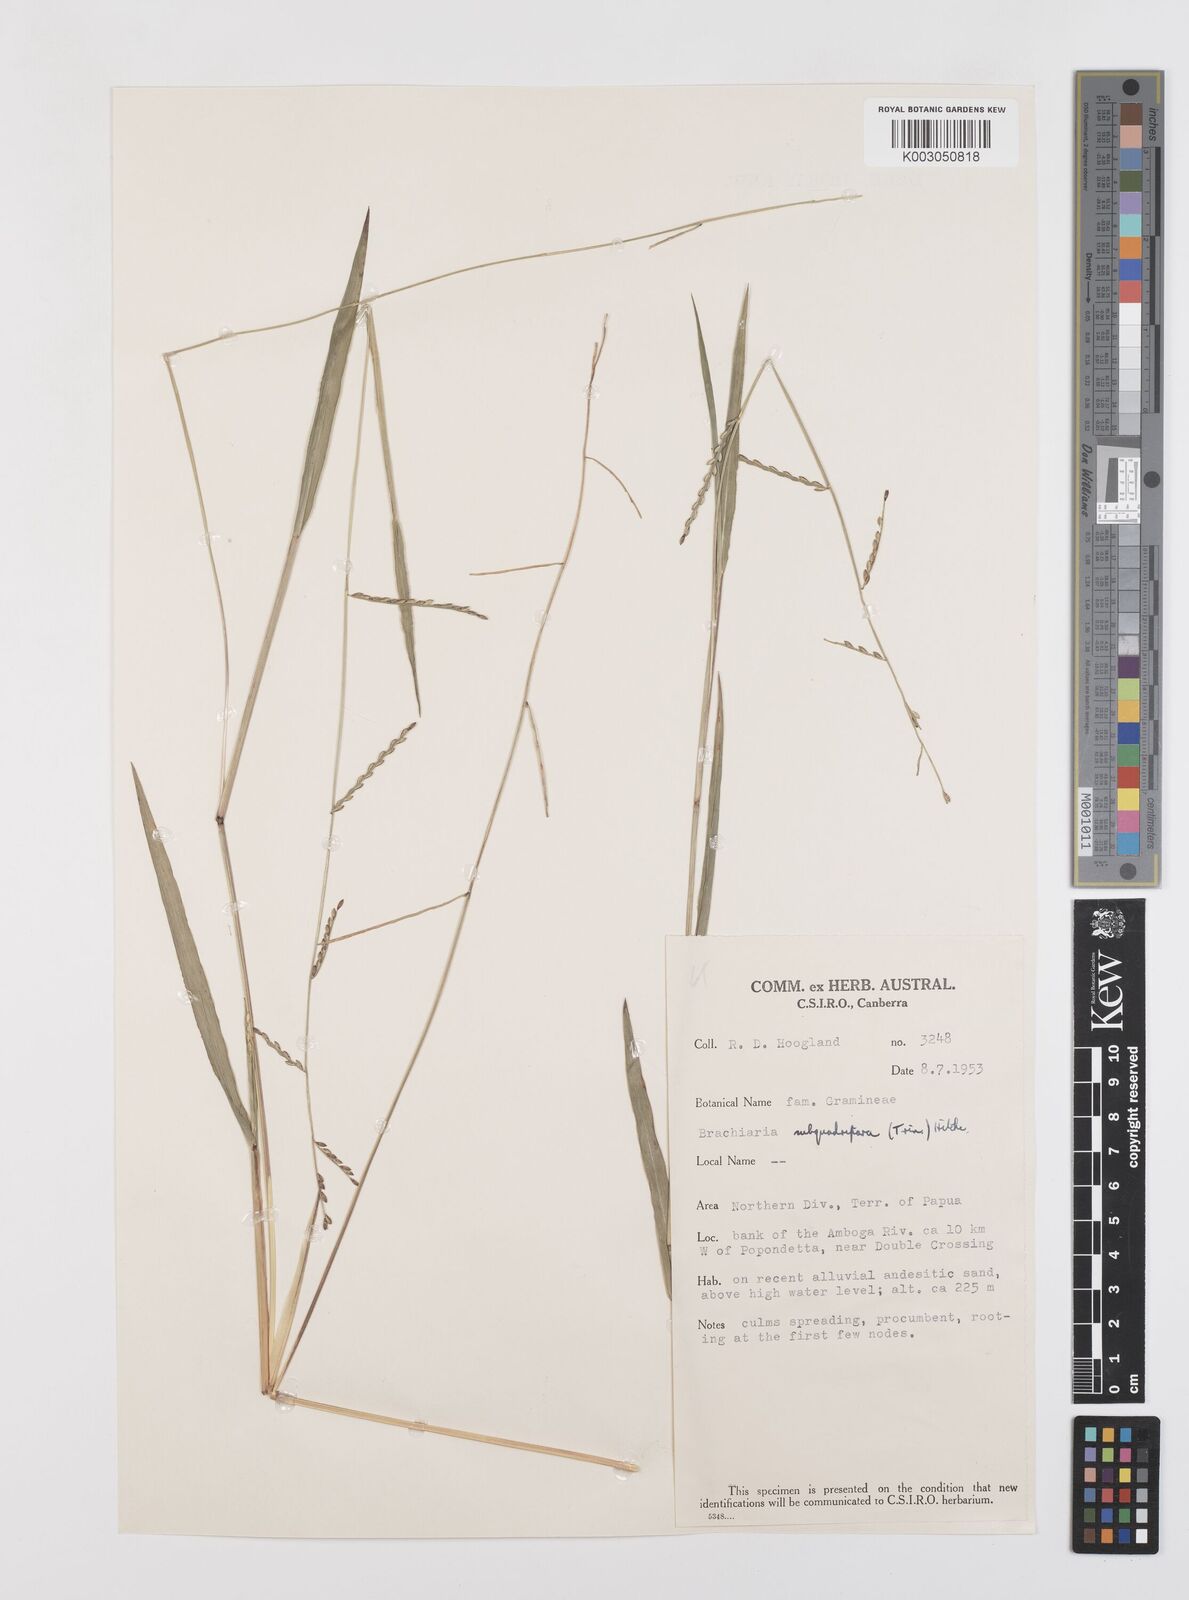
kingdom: Plantae
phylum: Tracheophyta
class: Liliopsida
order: Poales
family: Poaceae
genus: Urochloa
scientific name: Urochloa subquadripara
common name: Armgrass millet
